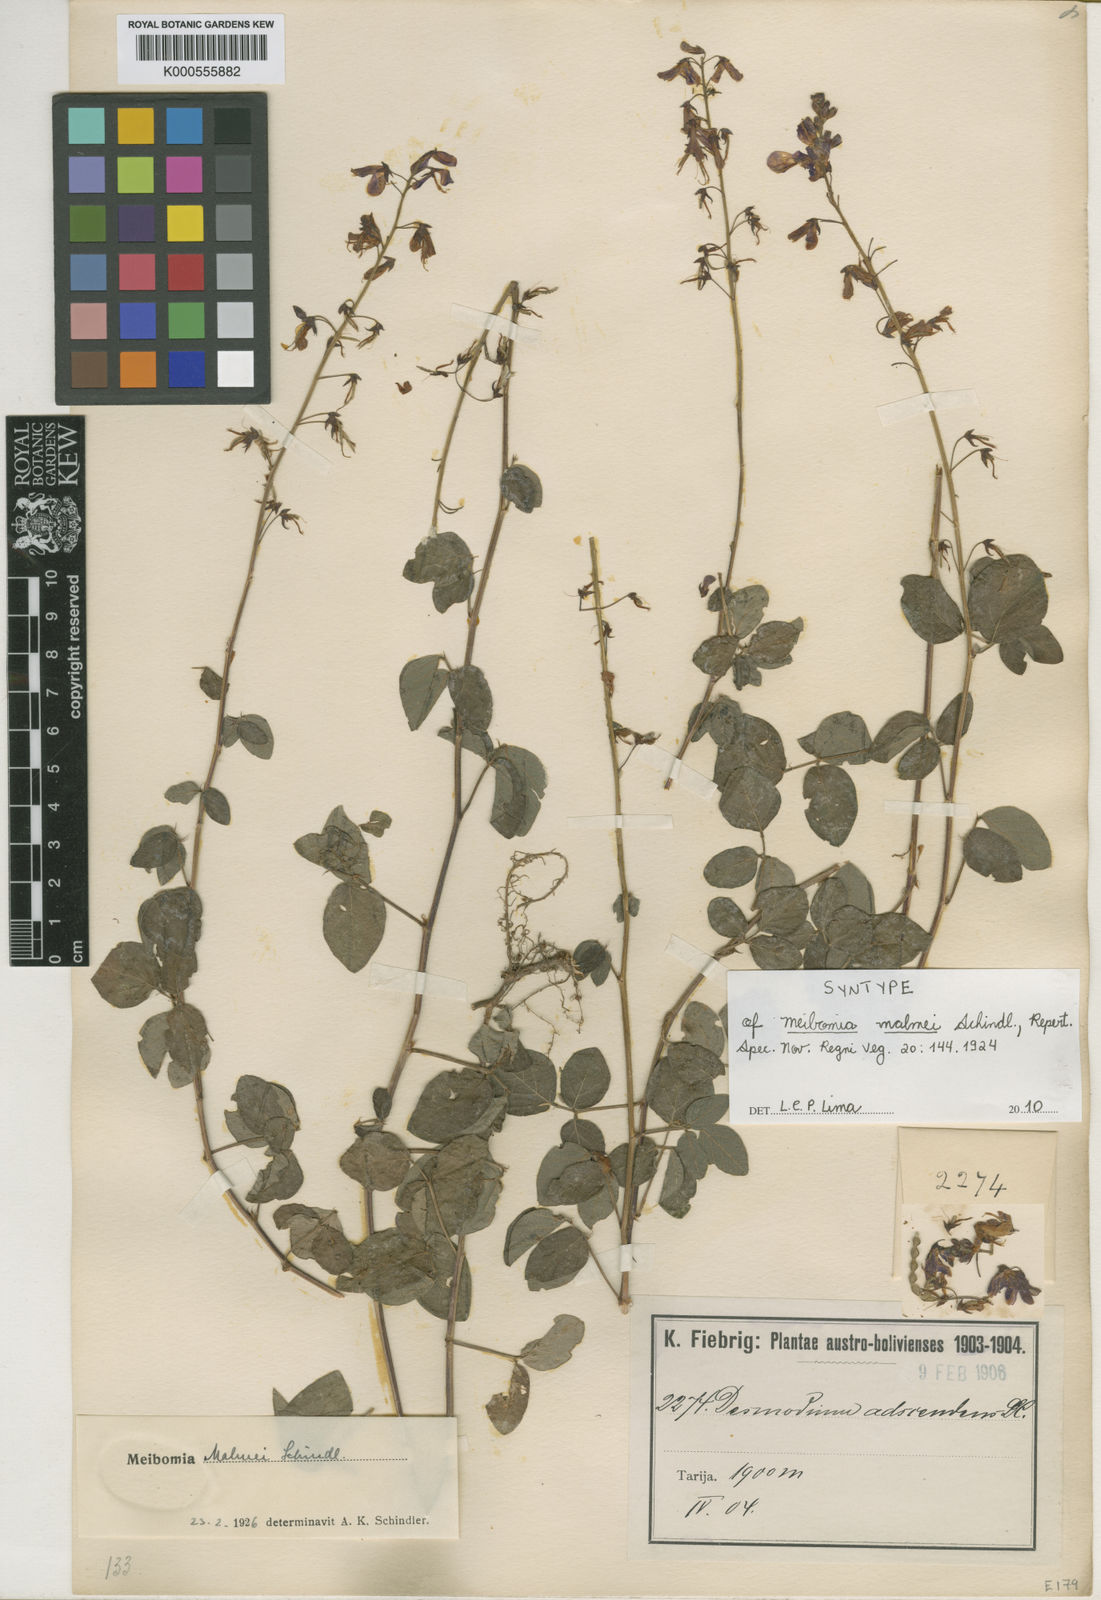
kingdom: Plantae
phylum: Tracheophyta
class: Magnoliopsida
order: Fabales
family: Fabaceae
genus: Grona
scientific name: Grona adscendens
